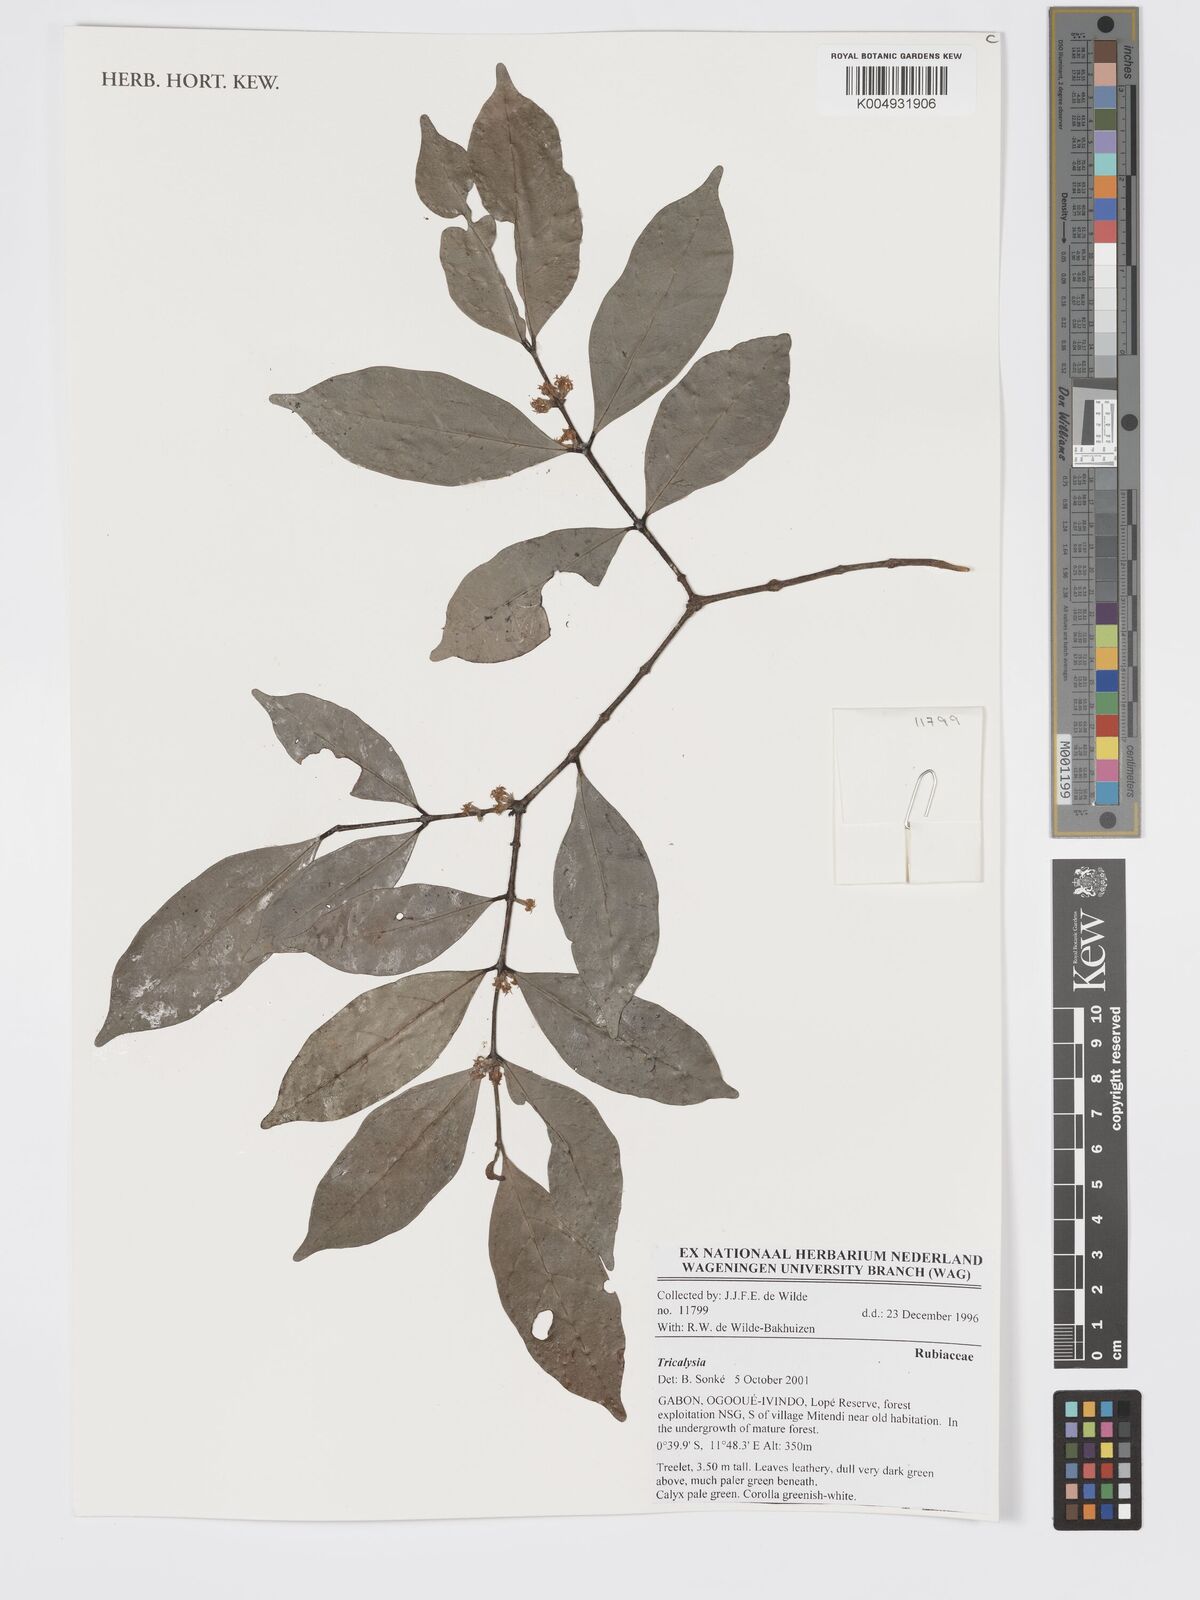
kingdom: Plantae
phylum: Tracheophyta
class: Magnoliopsida
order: Gentianales
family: Rubiaceae
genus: Tricalysia
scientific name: Tricalysia
